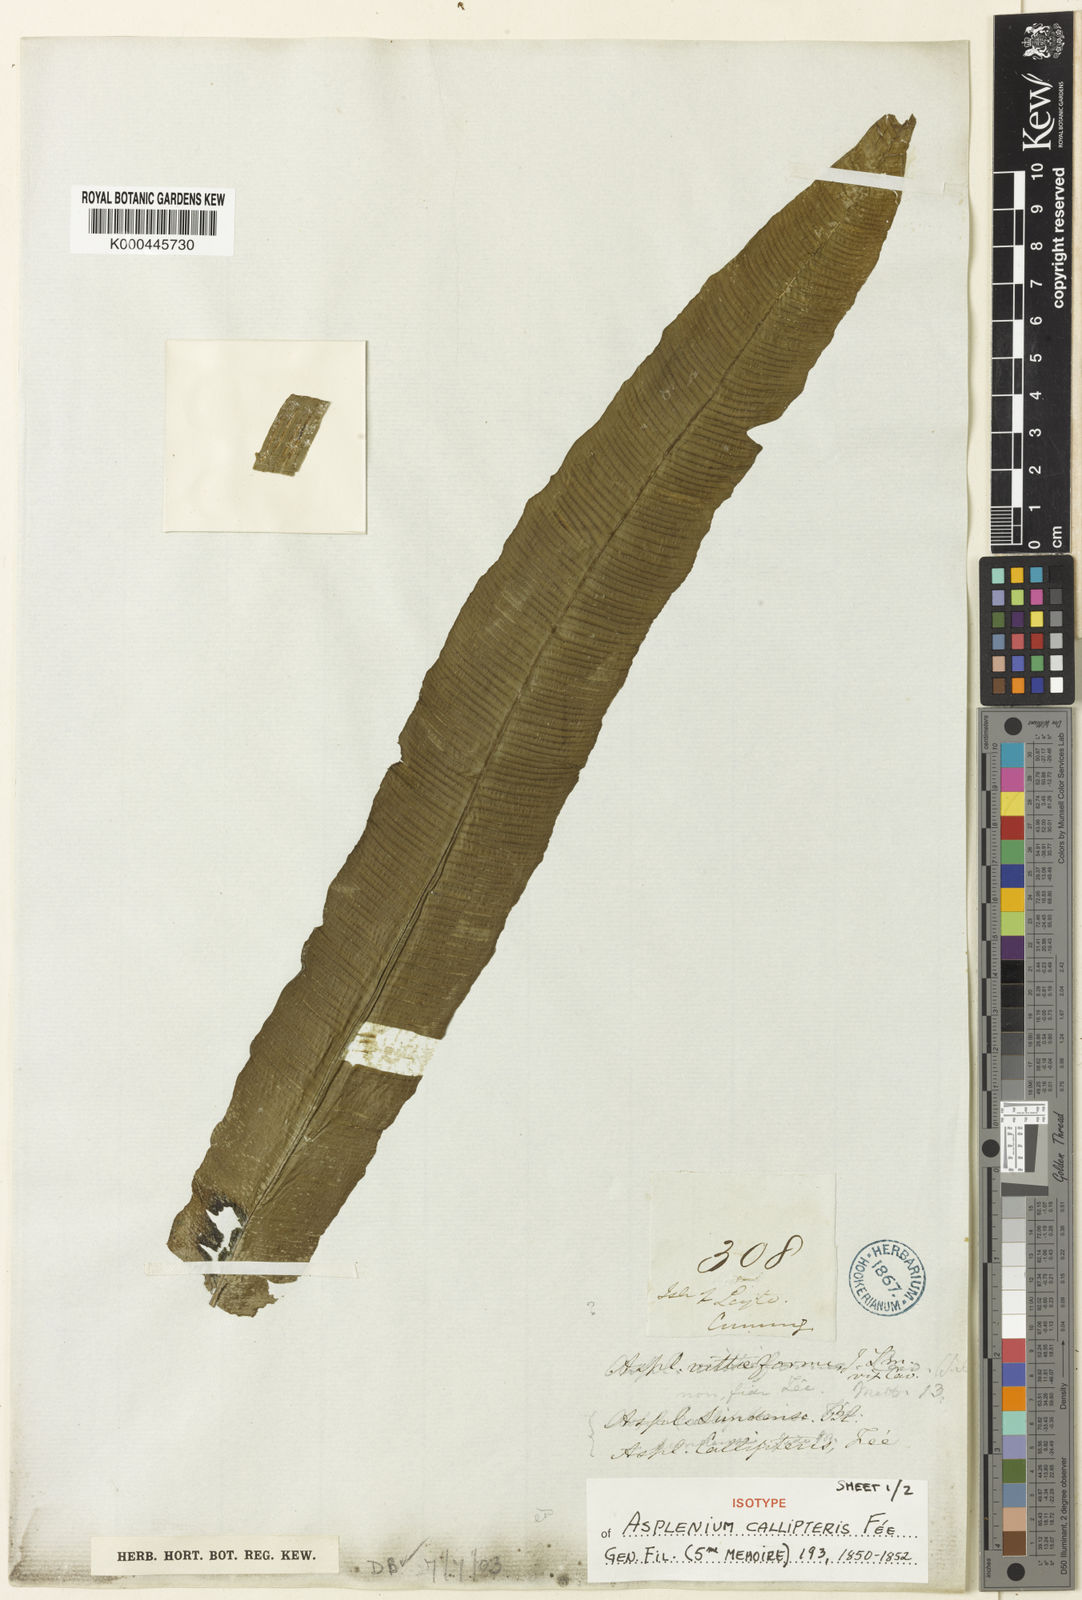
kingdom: Plantae
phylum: Tracheophyta
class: Polypodiopsida
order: Polypodiales
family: Aspleniaceae
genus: Asplenium
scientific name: Asplenium
